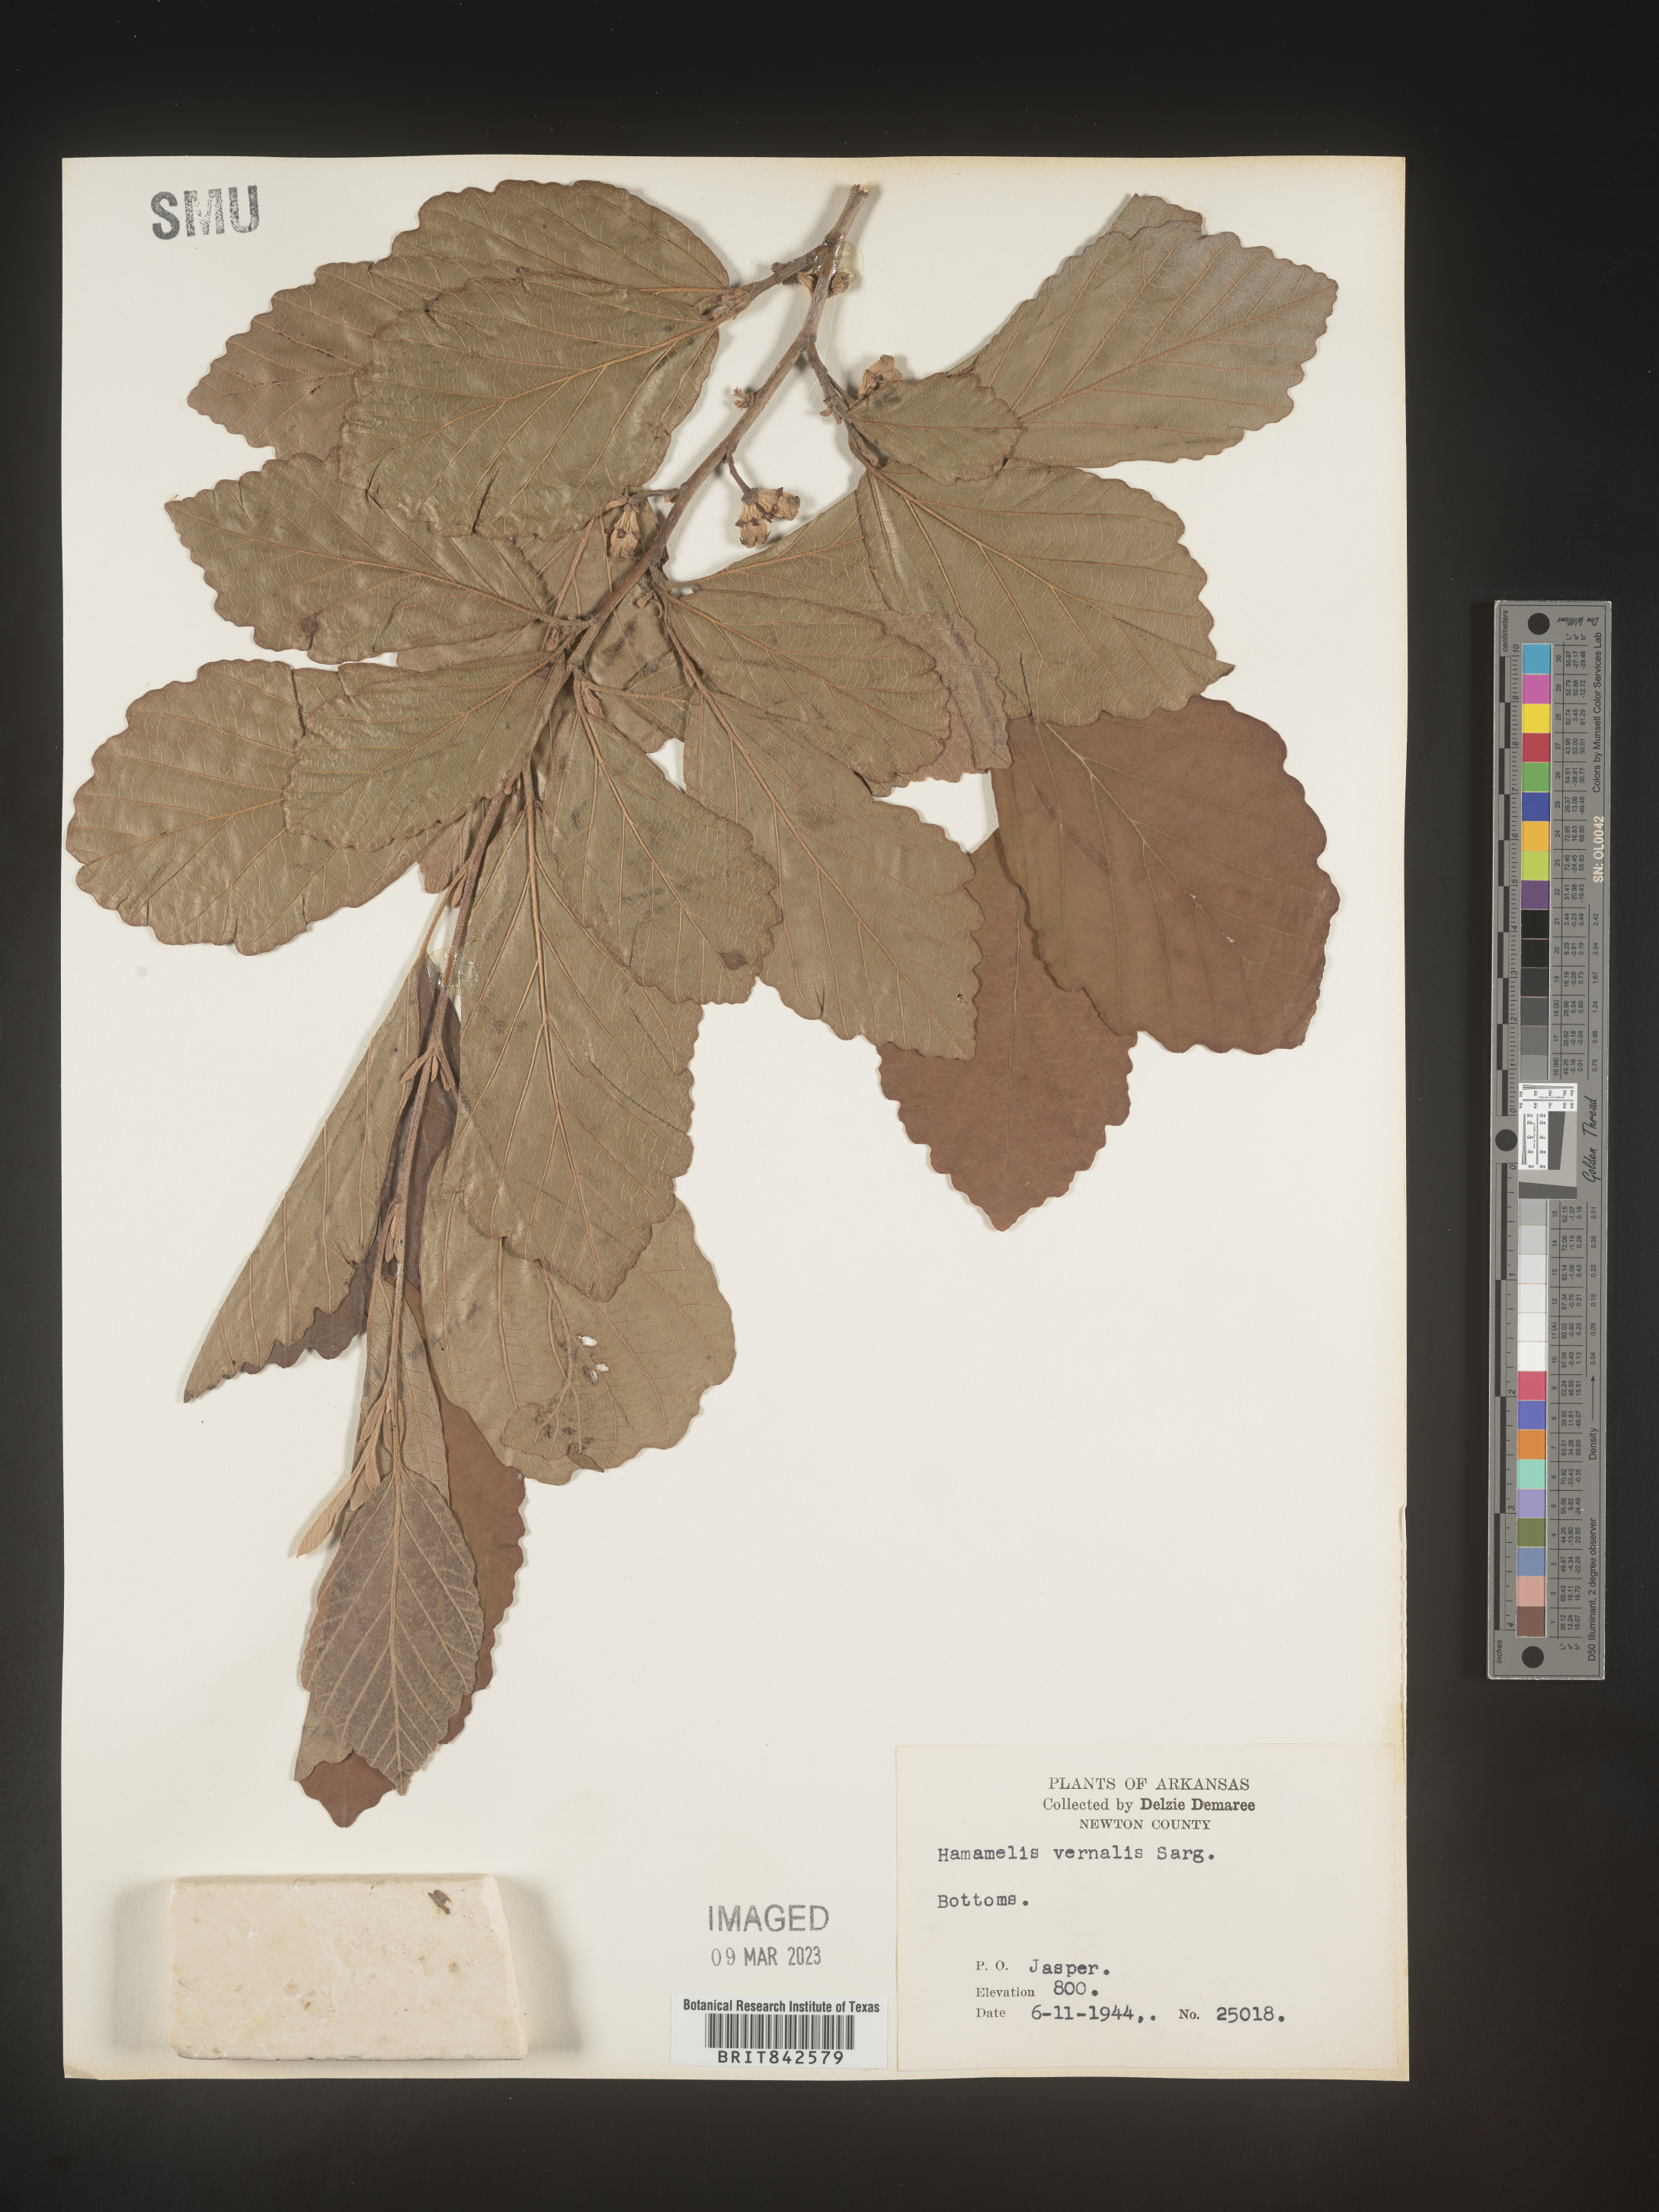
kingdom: Plantae
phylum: Tracheophyta
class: Magnoliopsida
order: Saxifragales
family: Hamamelidaceae
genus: Hamamelis
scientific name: Hamamelis vernalis
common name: Ozark witch-hazel
